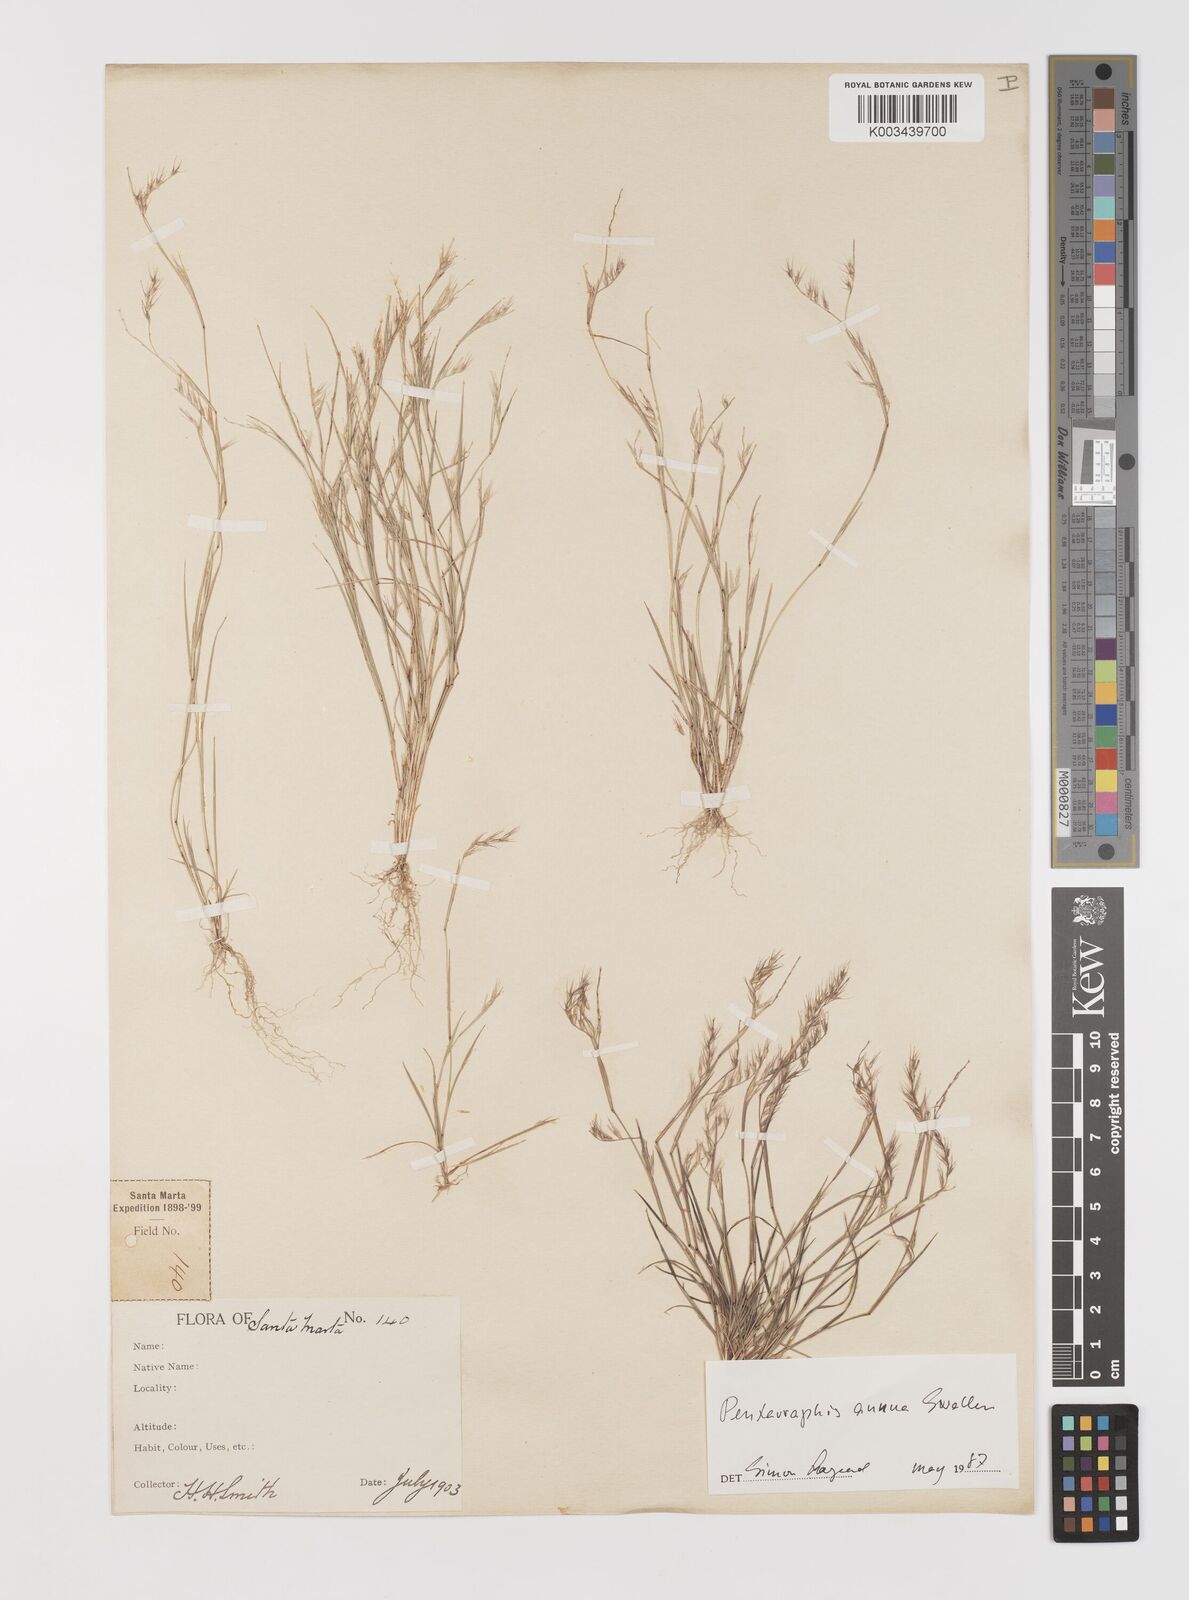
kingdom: Plantae
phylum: Tracheophyta
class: Liliopsida
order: Poales
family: Poaceae
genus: Bouteloua
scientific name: Bouteloua swallenii
